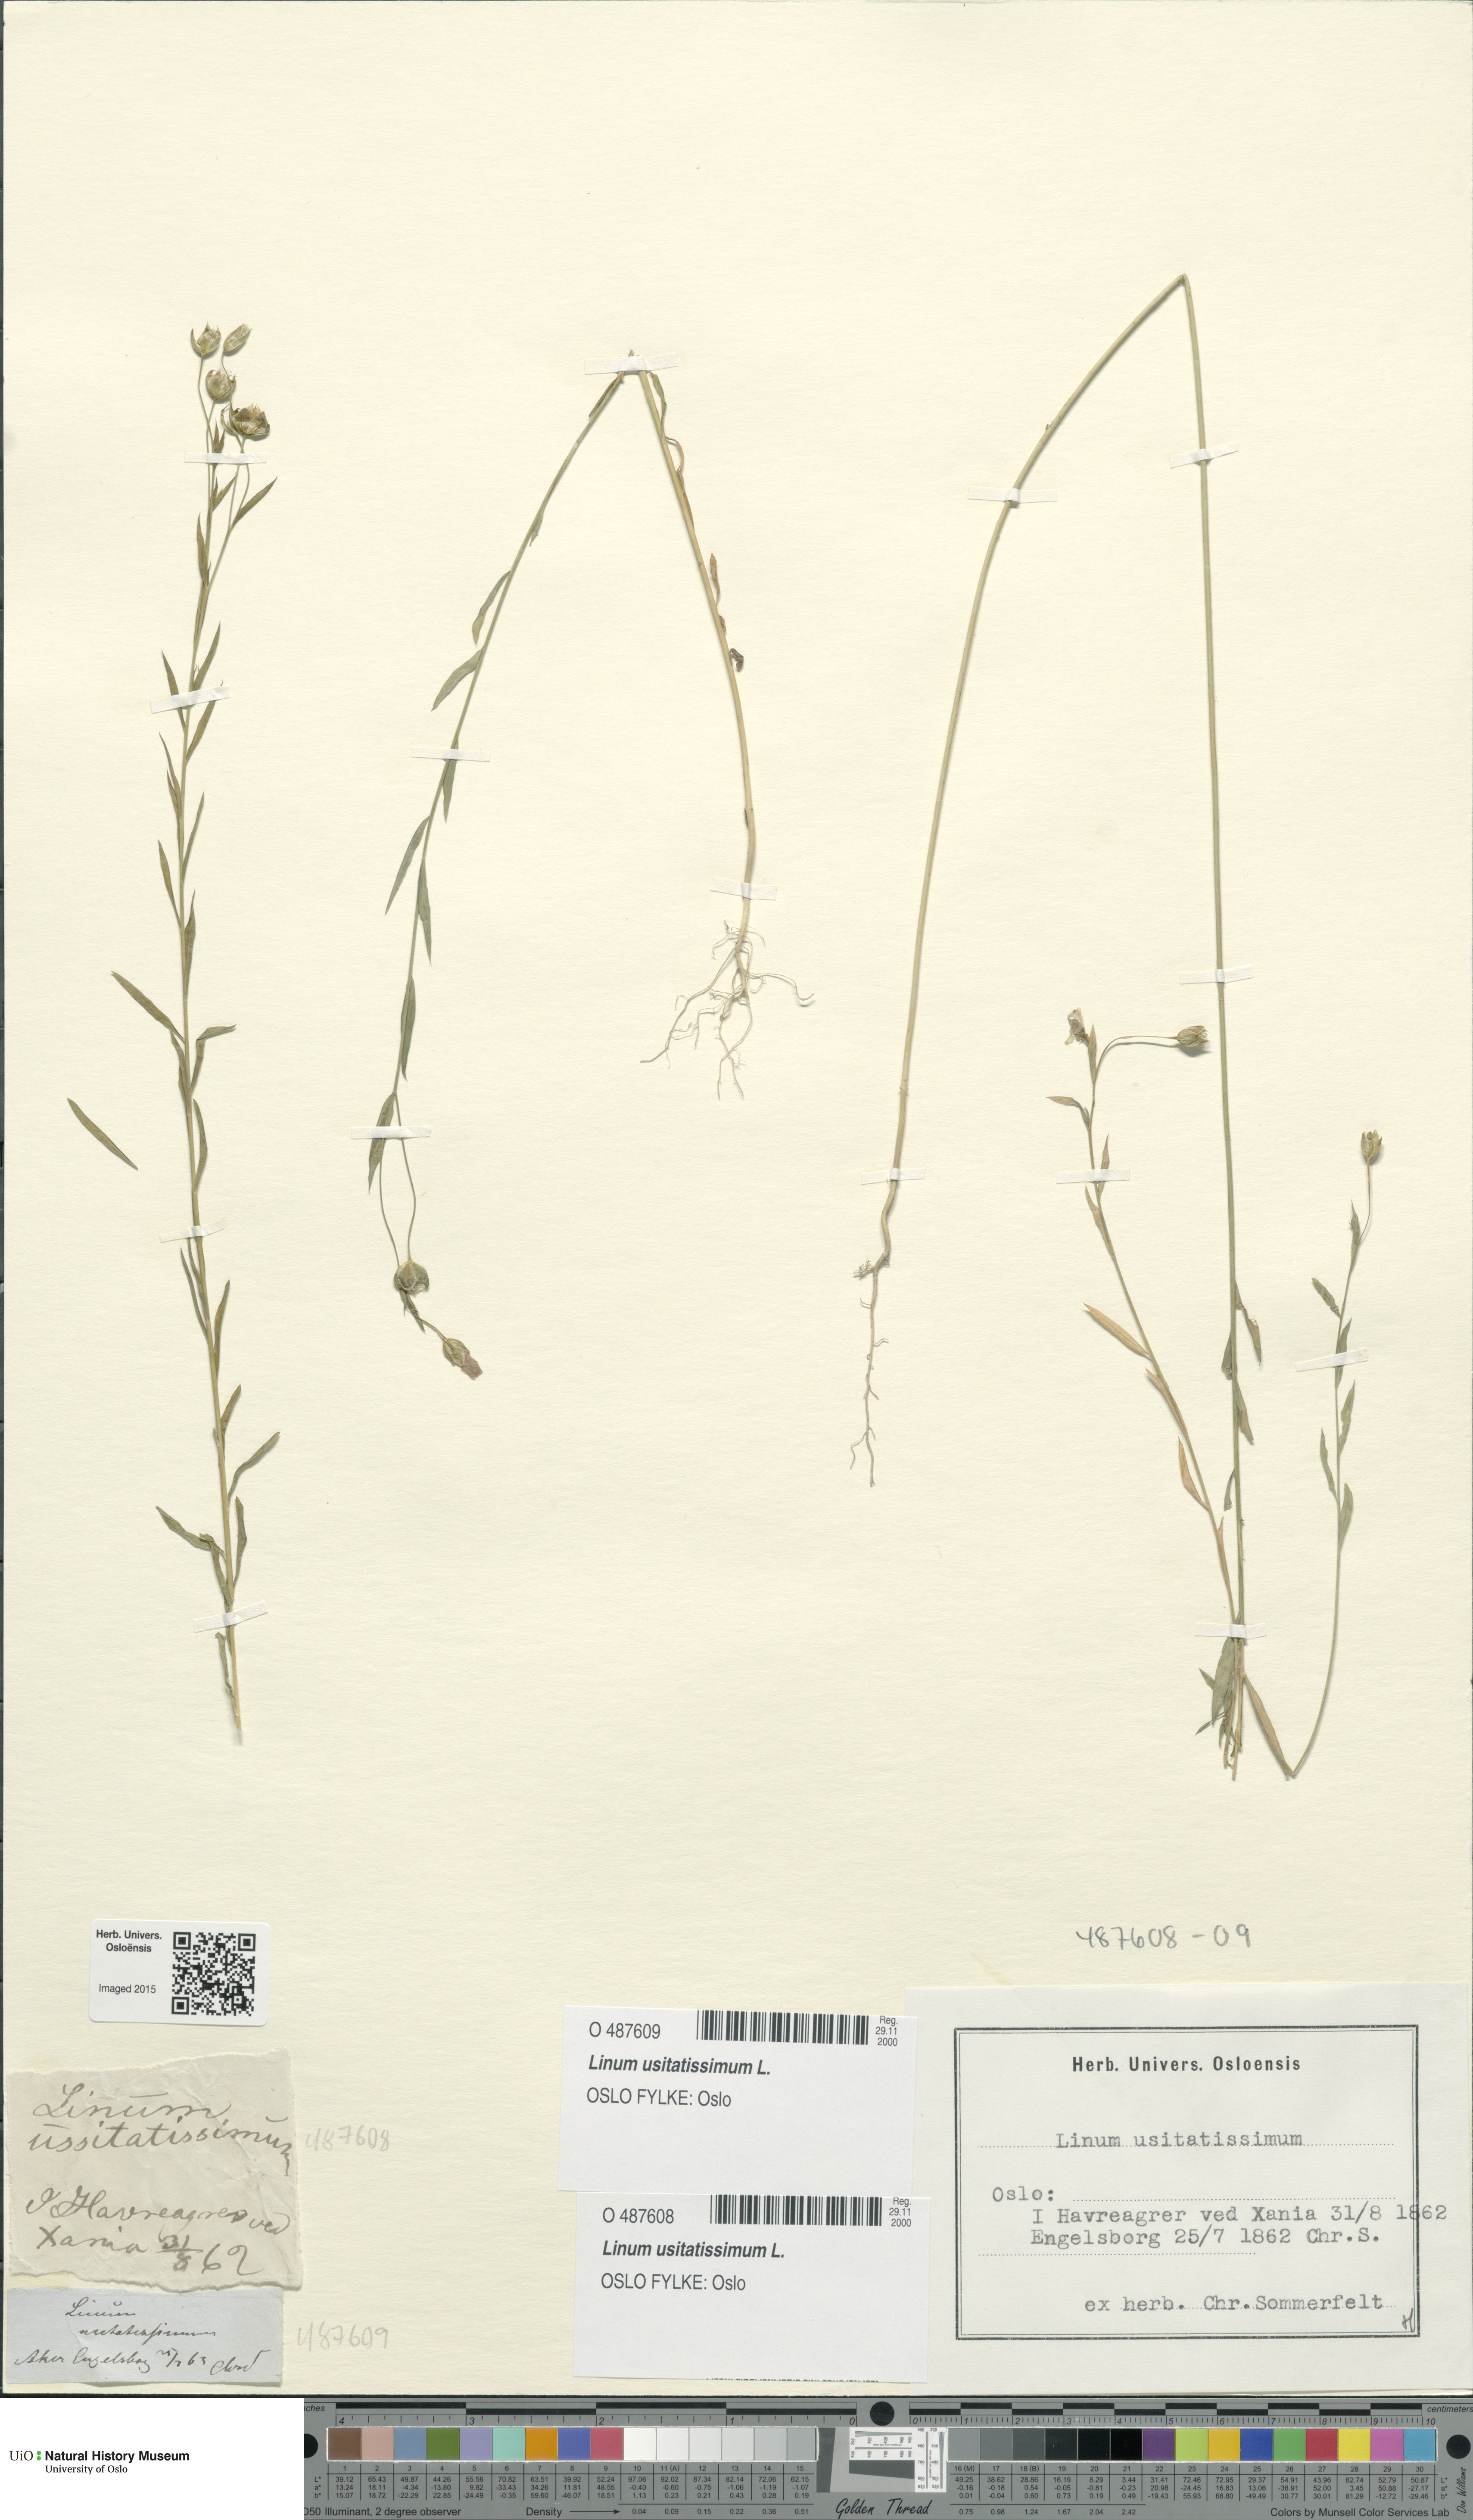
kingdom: Plantae
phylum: Tracheophyta
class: Magnoliopsida
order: Malpighiales
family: Linaceae
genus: Linum
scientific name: Linum usitatissimum
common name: Flax
